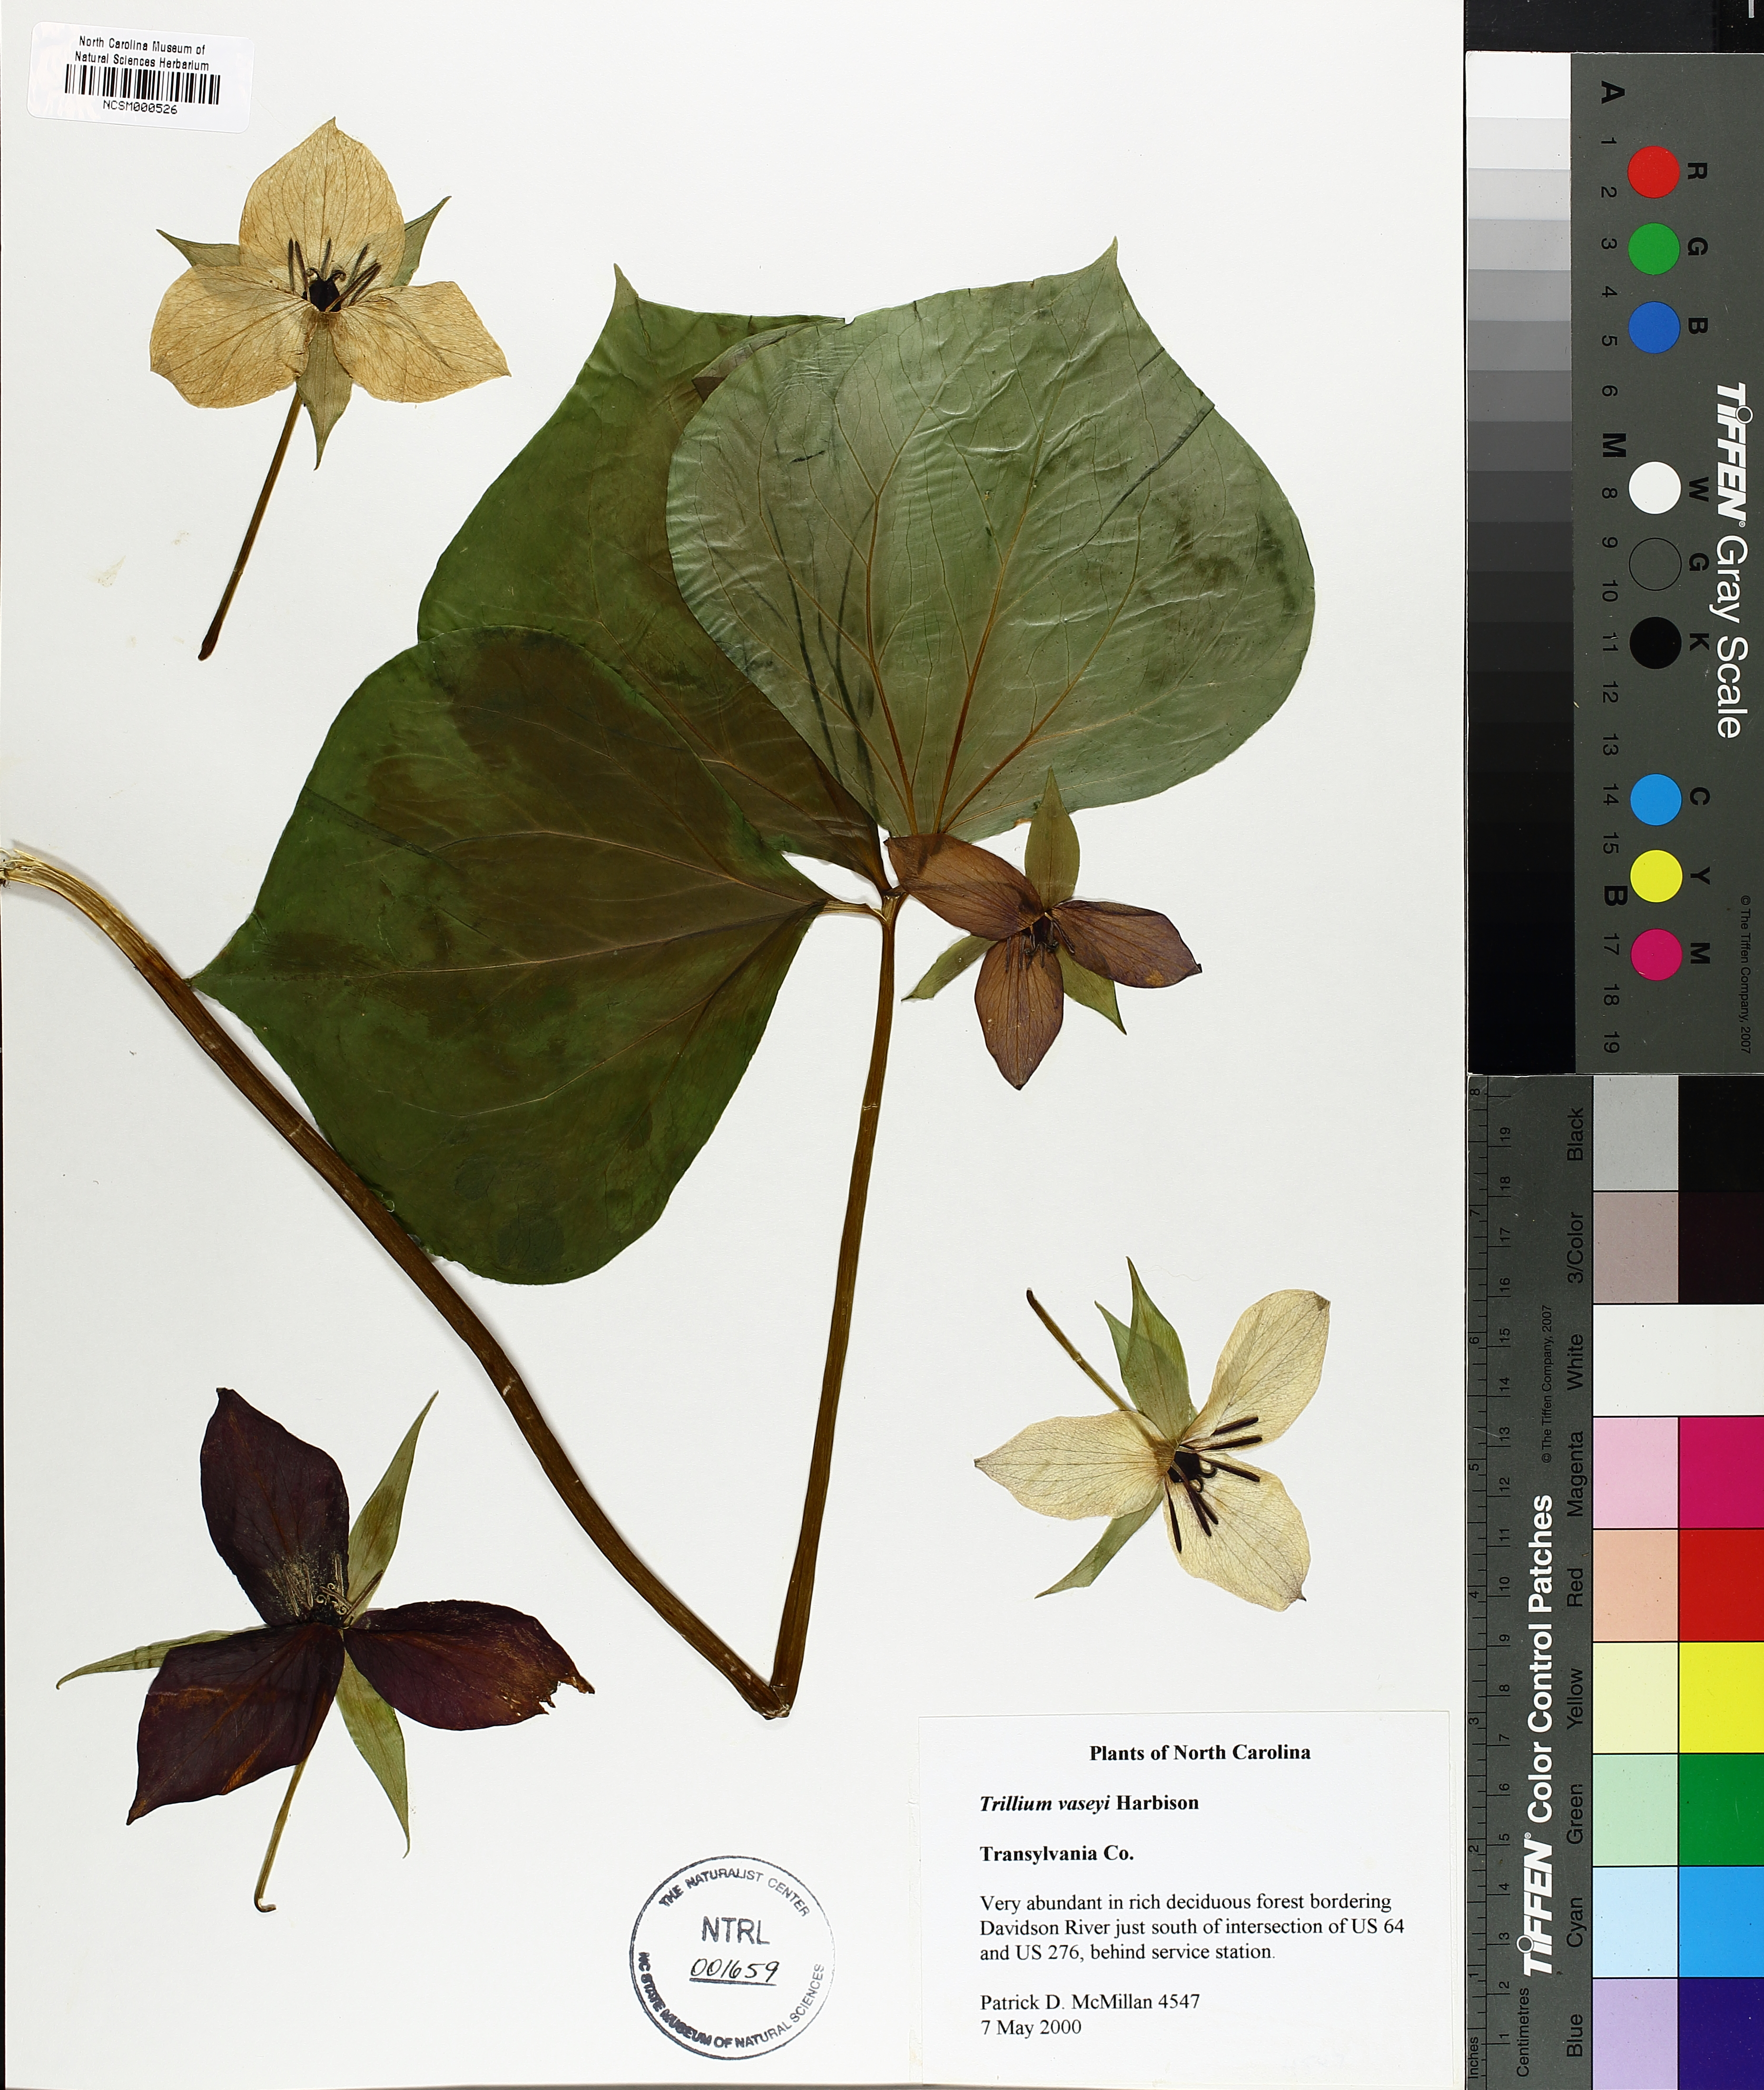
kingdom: Plantae
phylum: Tracheophyta
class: Liliopsida
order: Liliales
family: Melanthiaceae
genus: Trillium
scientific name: Trillium vaseyi
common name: Sweet trillium
